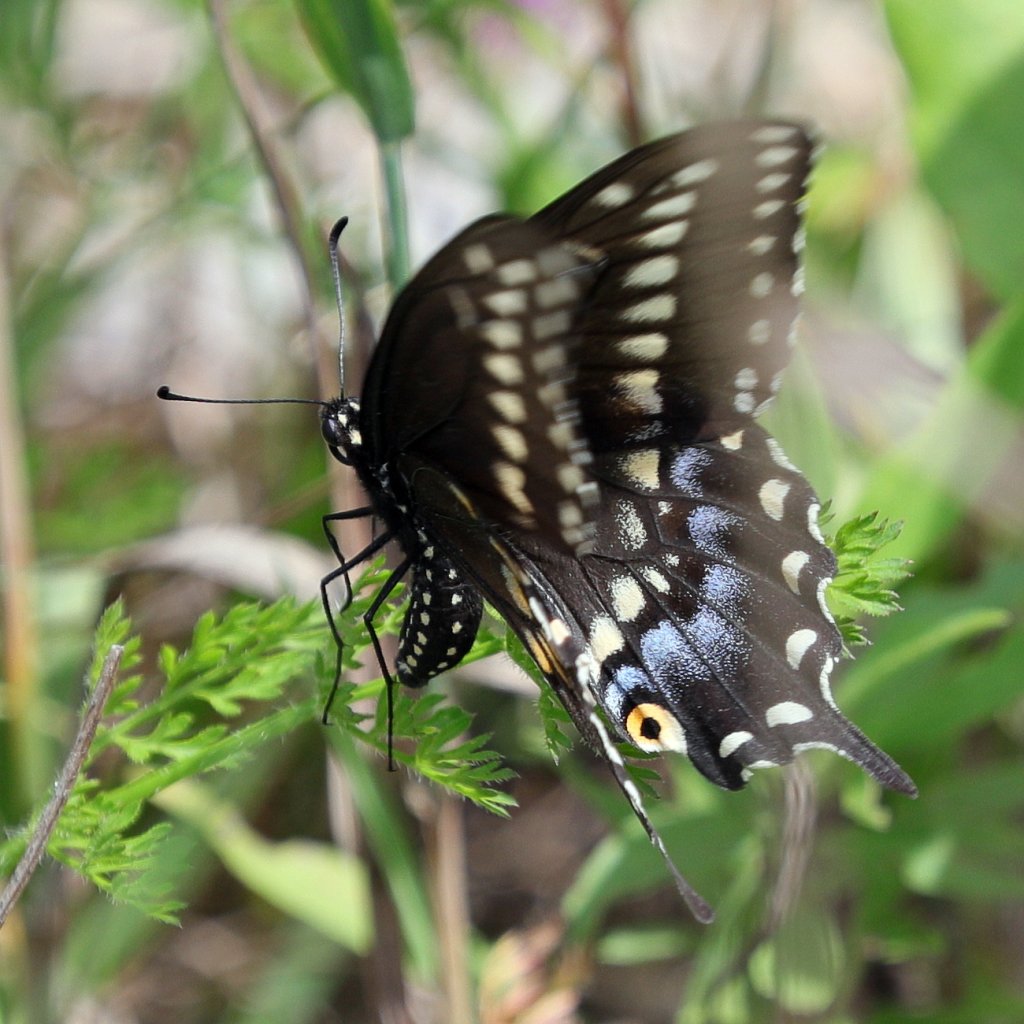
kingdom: Animalia
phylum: Arthropoda
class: Insecta
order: Lepidoptera
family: Papilionidae
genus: Papilio
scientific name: Papilio polyxenes
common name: Black Swallowtail
